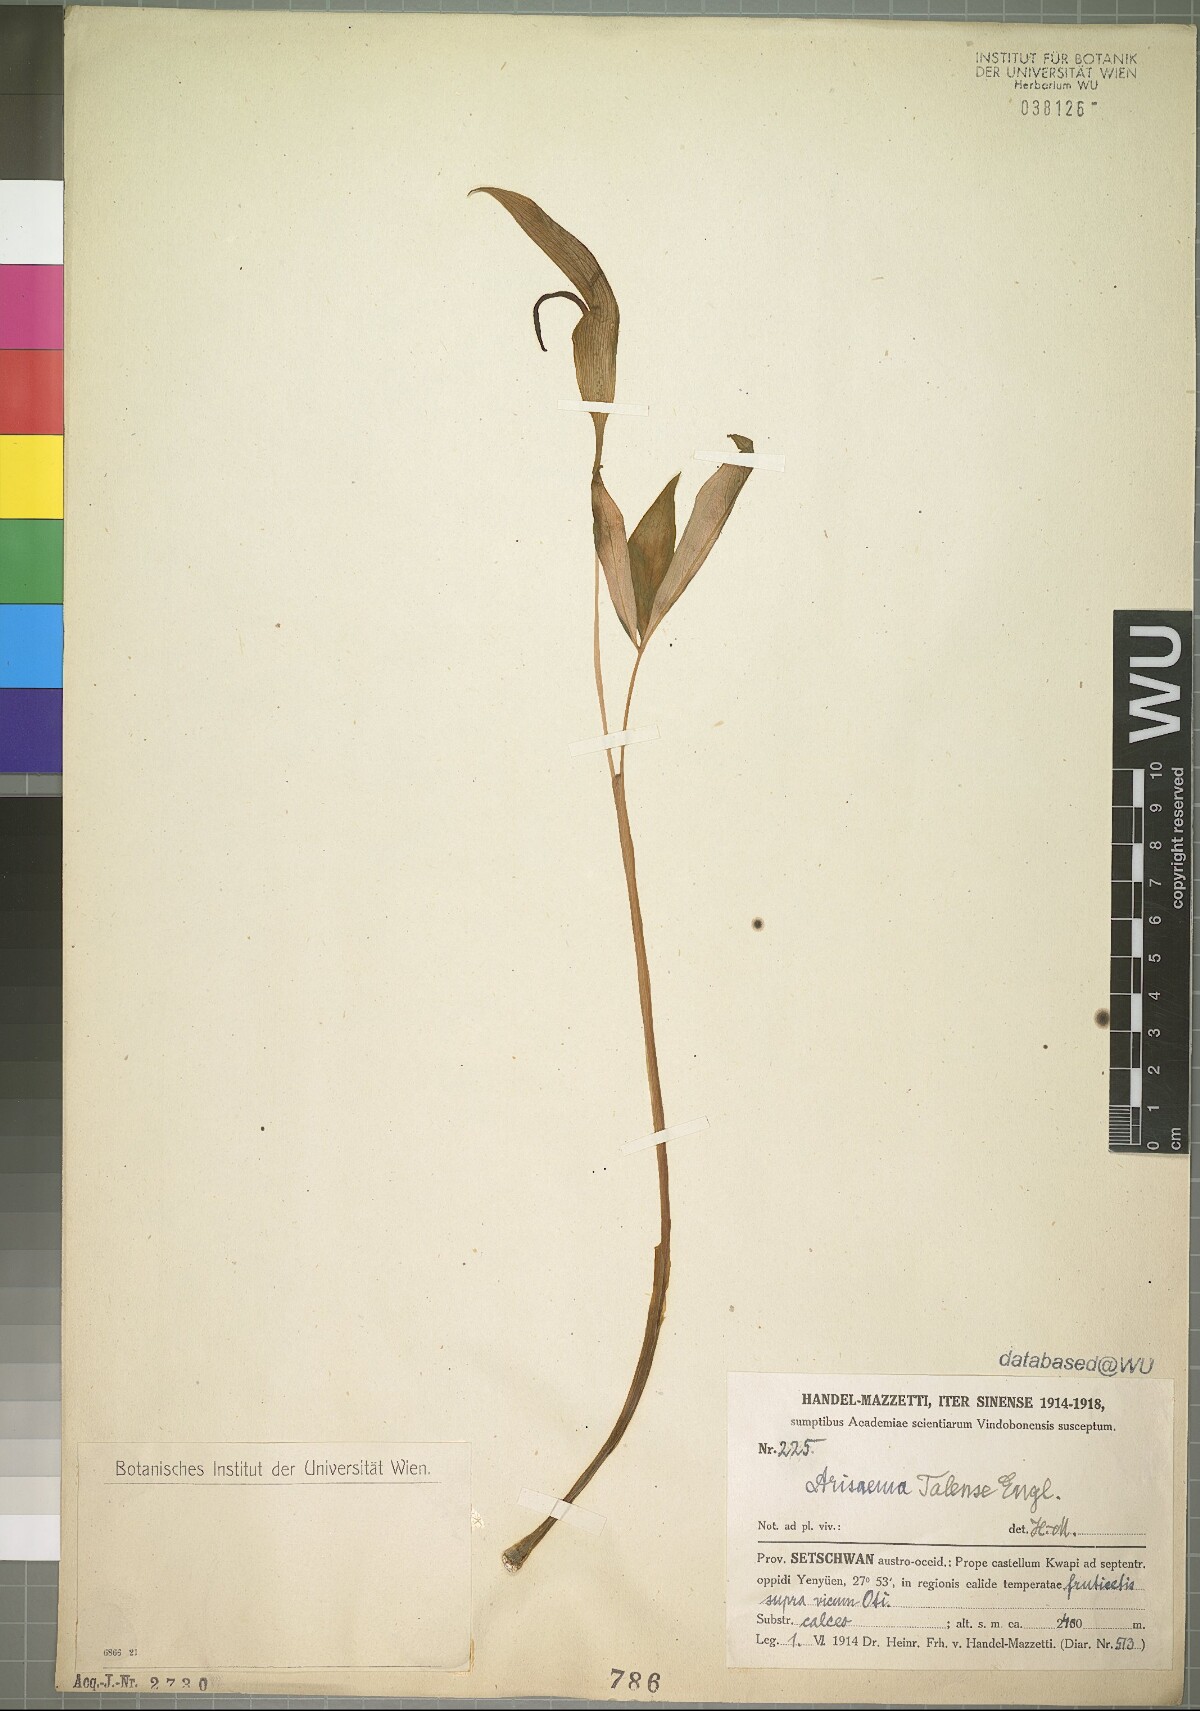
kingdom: Plantae
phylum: Tracheophyta
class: Liliopsida
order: Alismatales
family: Araceae
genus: Arisaema
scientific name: Arisaema lichiangense
